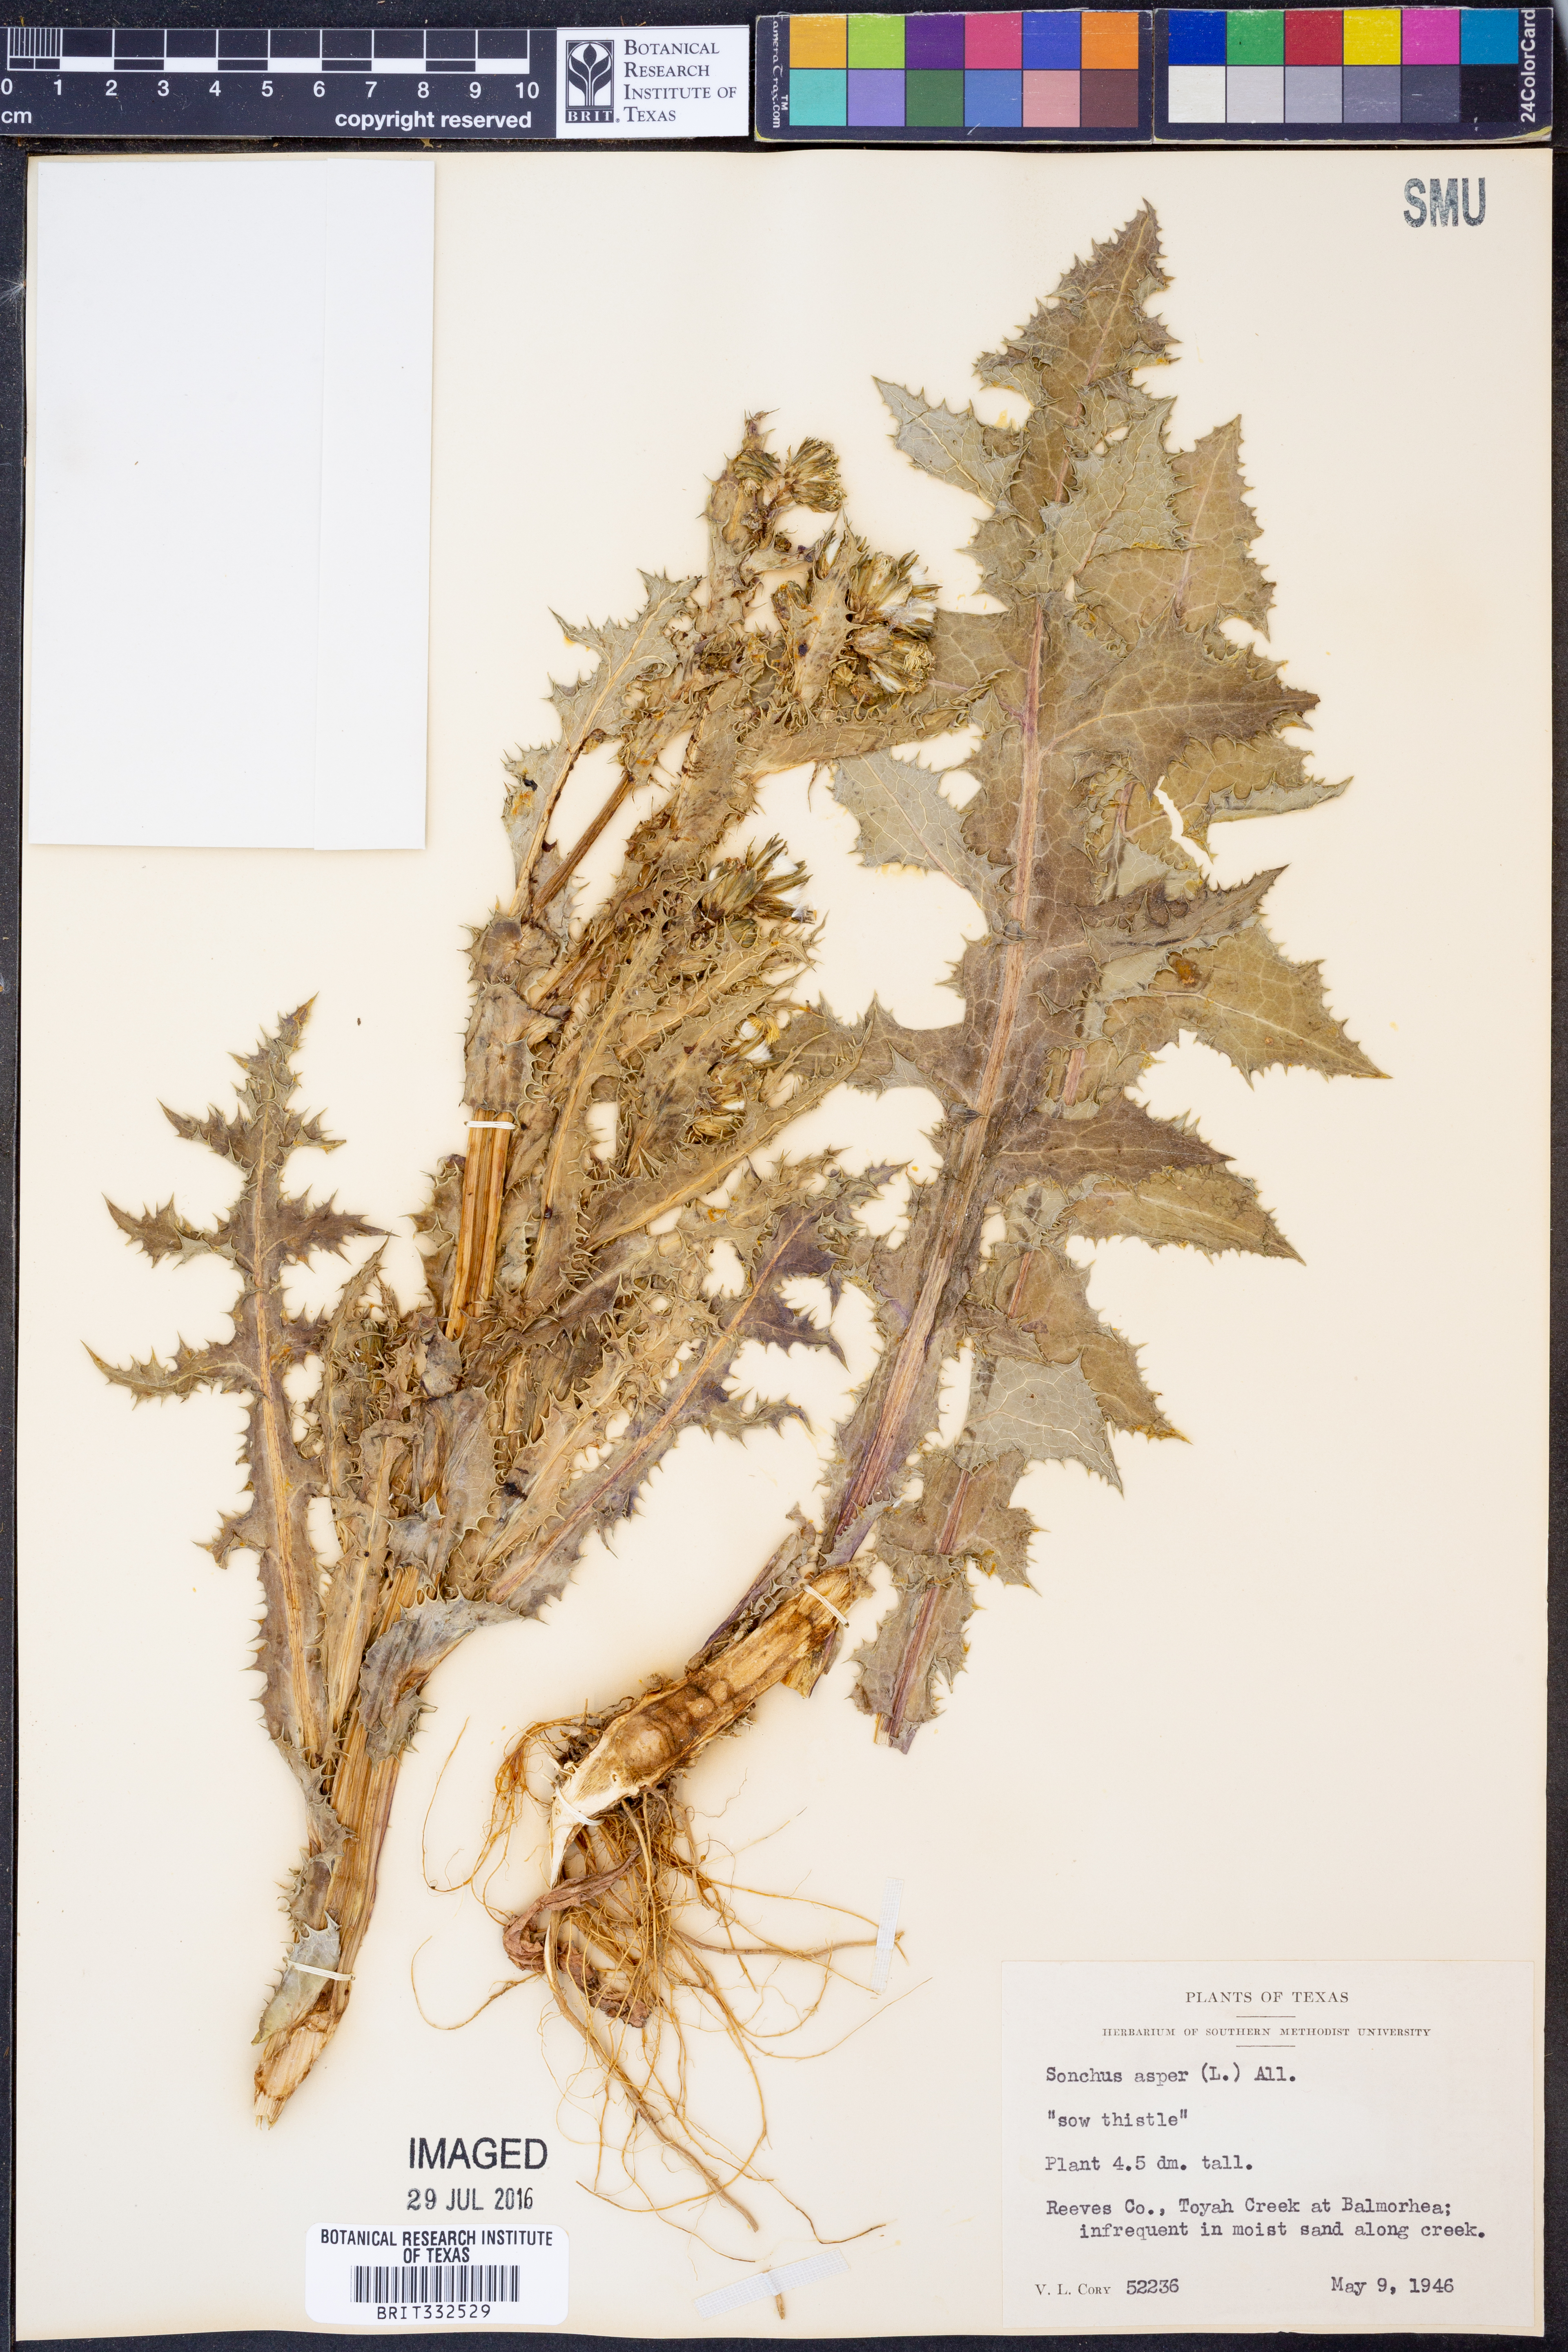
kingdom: Plantae
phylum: Tracheophyta
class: Magnoliopsida
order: Asterales
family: Asteraceae
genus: Sonchus
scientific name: Sonchus asper
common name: Prickly sow-thistle
